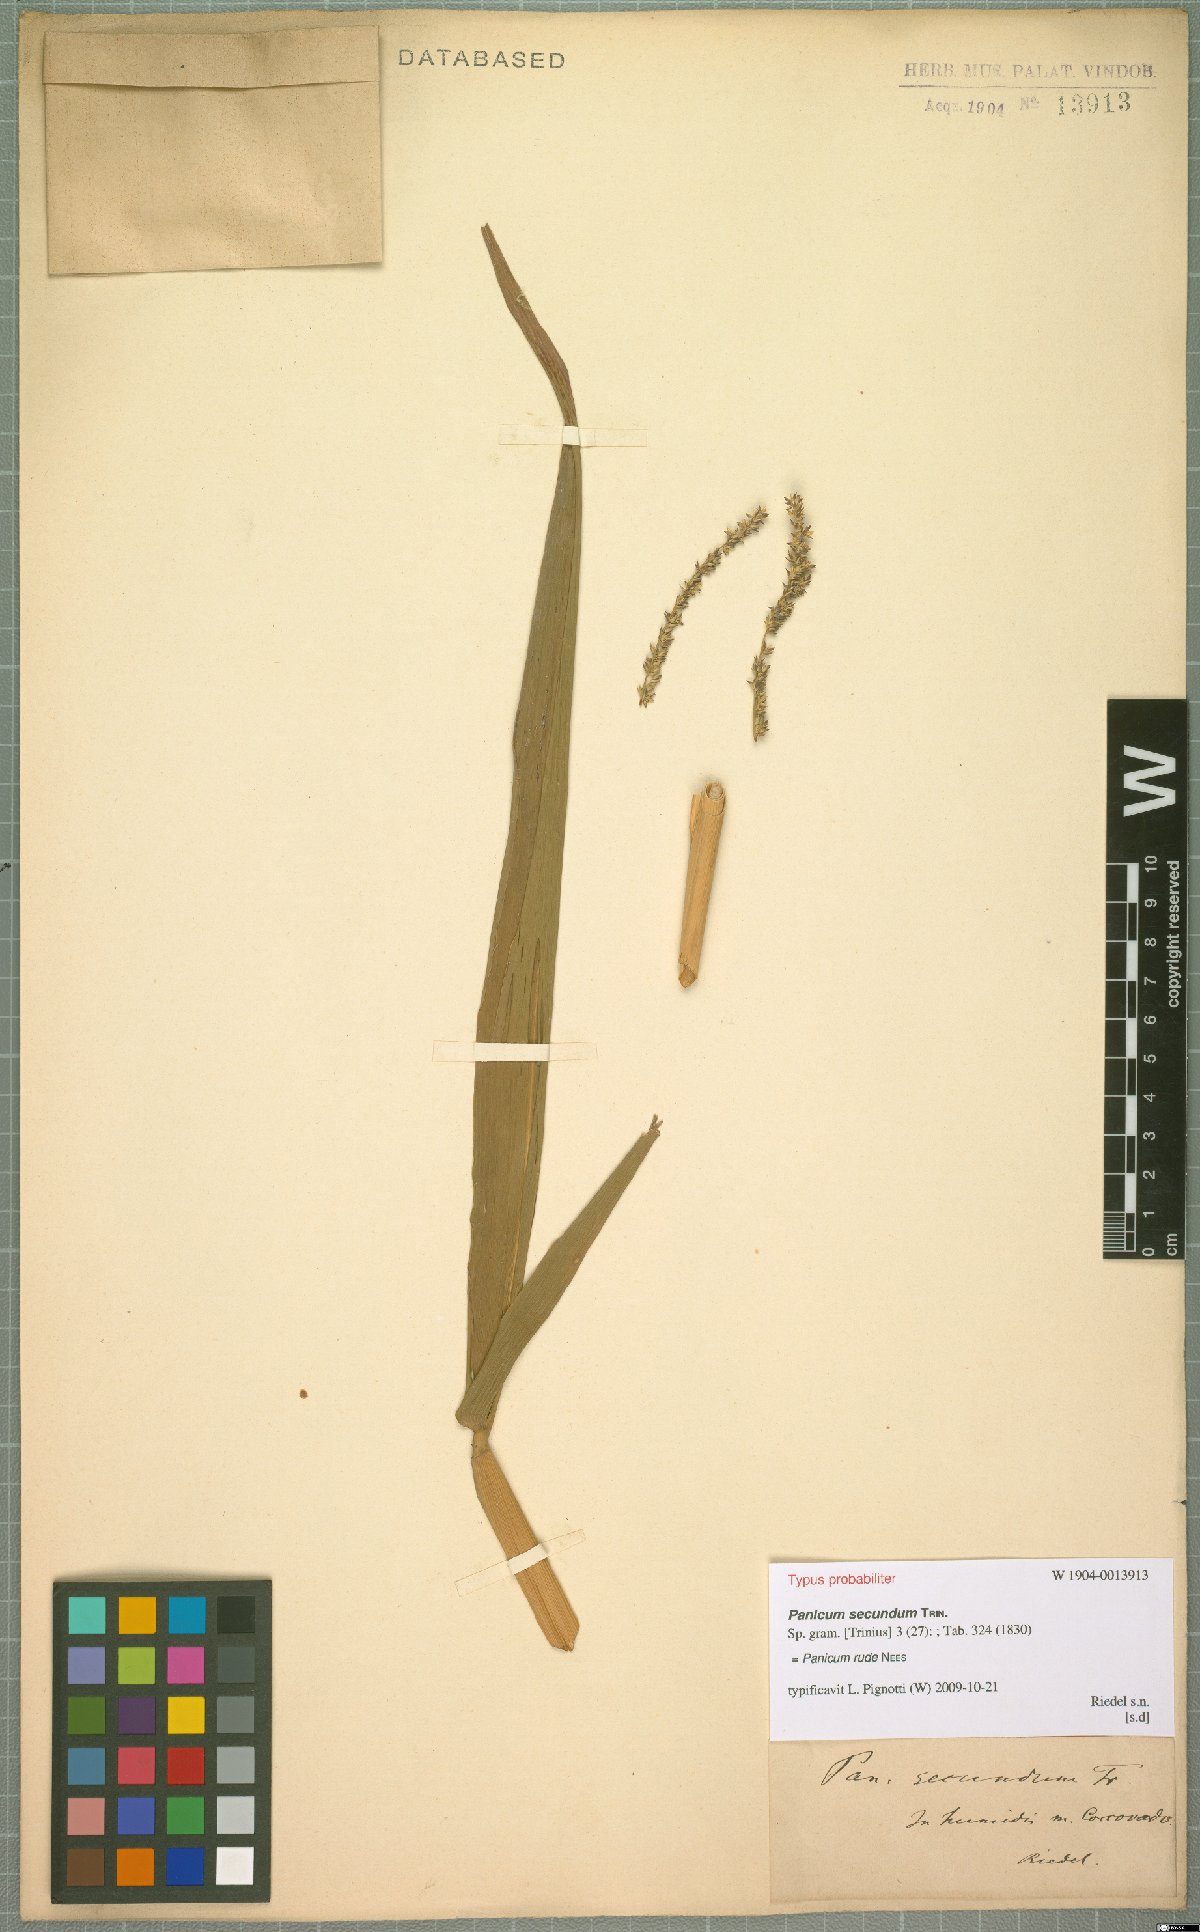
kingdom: Plantae
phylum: Tracheophyta
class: Liliopsida
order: Poales
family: Poaceae
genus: Ocellochloa
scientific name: Ocellochloa rudis
